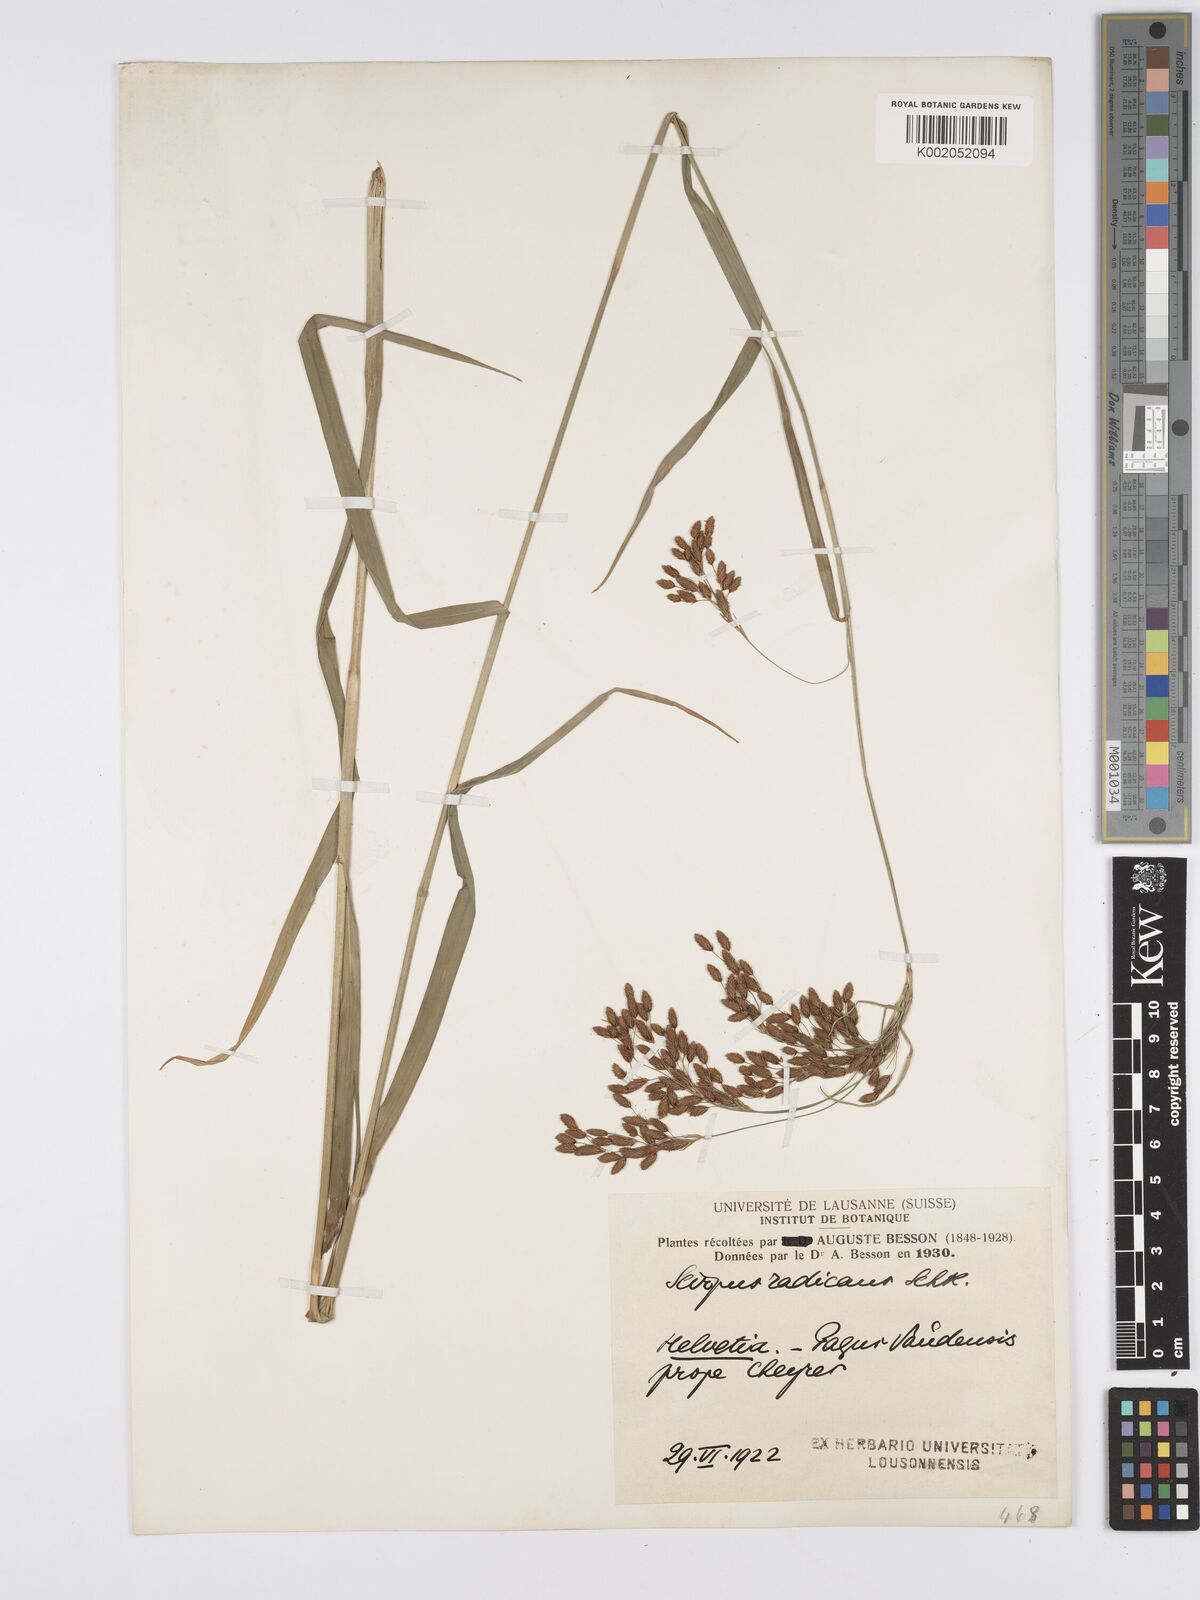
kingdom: Plantae
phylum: Tracheophyta
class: Liliopsida
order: Poales
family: Cyperaceae
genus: Scirpus
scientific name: Scirpus radicans
